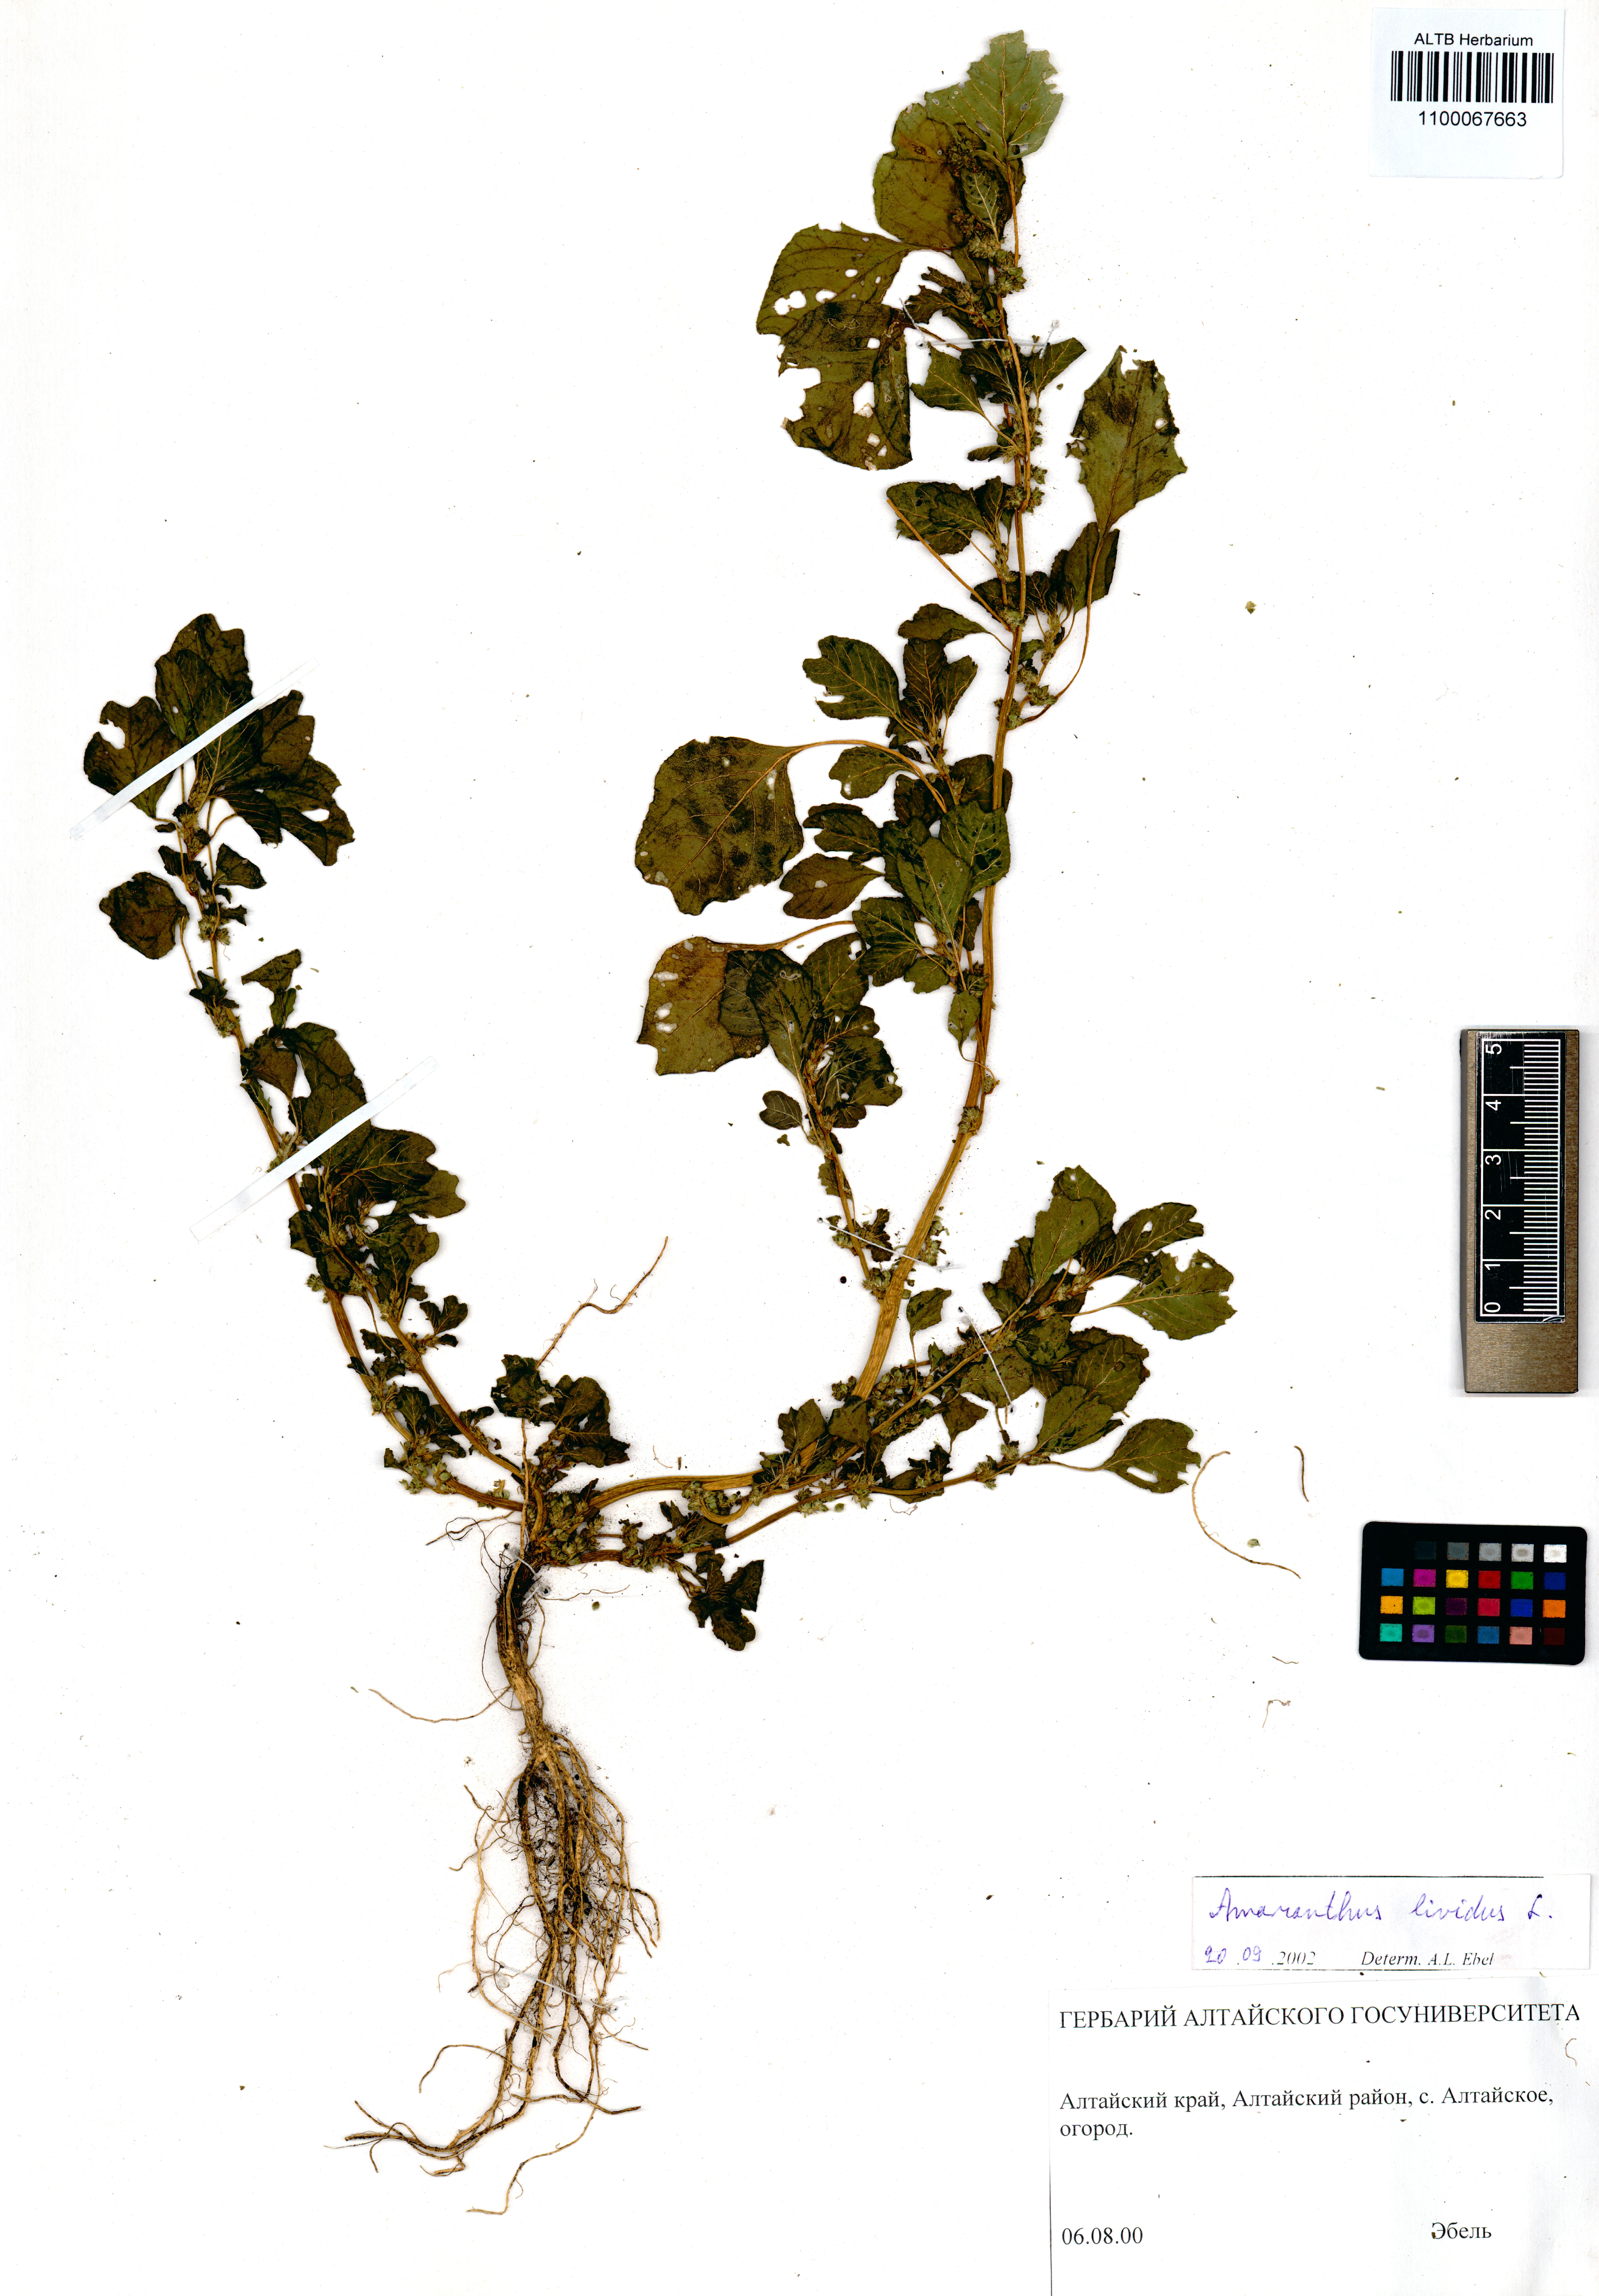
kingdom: Plantae
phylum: Tracheophyta
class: Magnoliopsida
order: Caryophyllales
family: Amaranthaceae
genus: Amaranthus
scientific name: Amaranthus blitoides
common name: Prostrate pigweed
